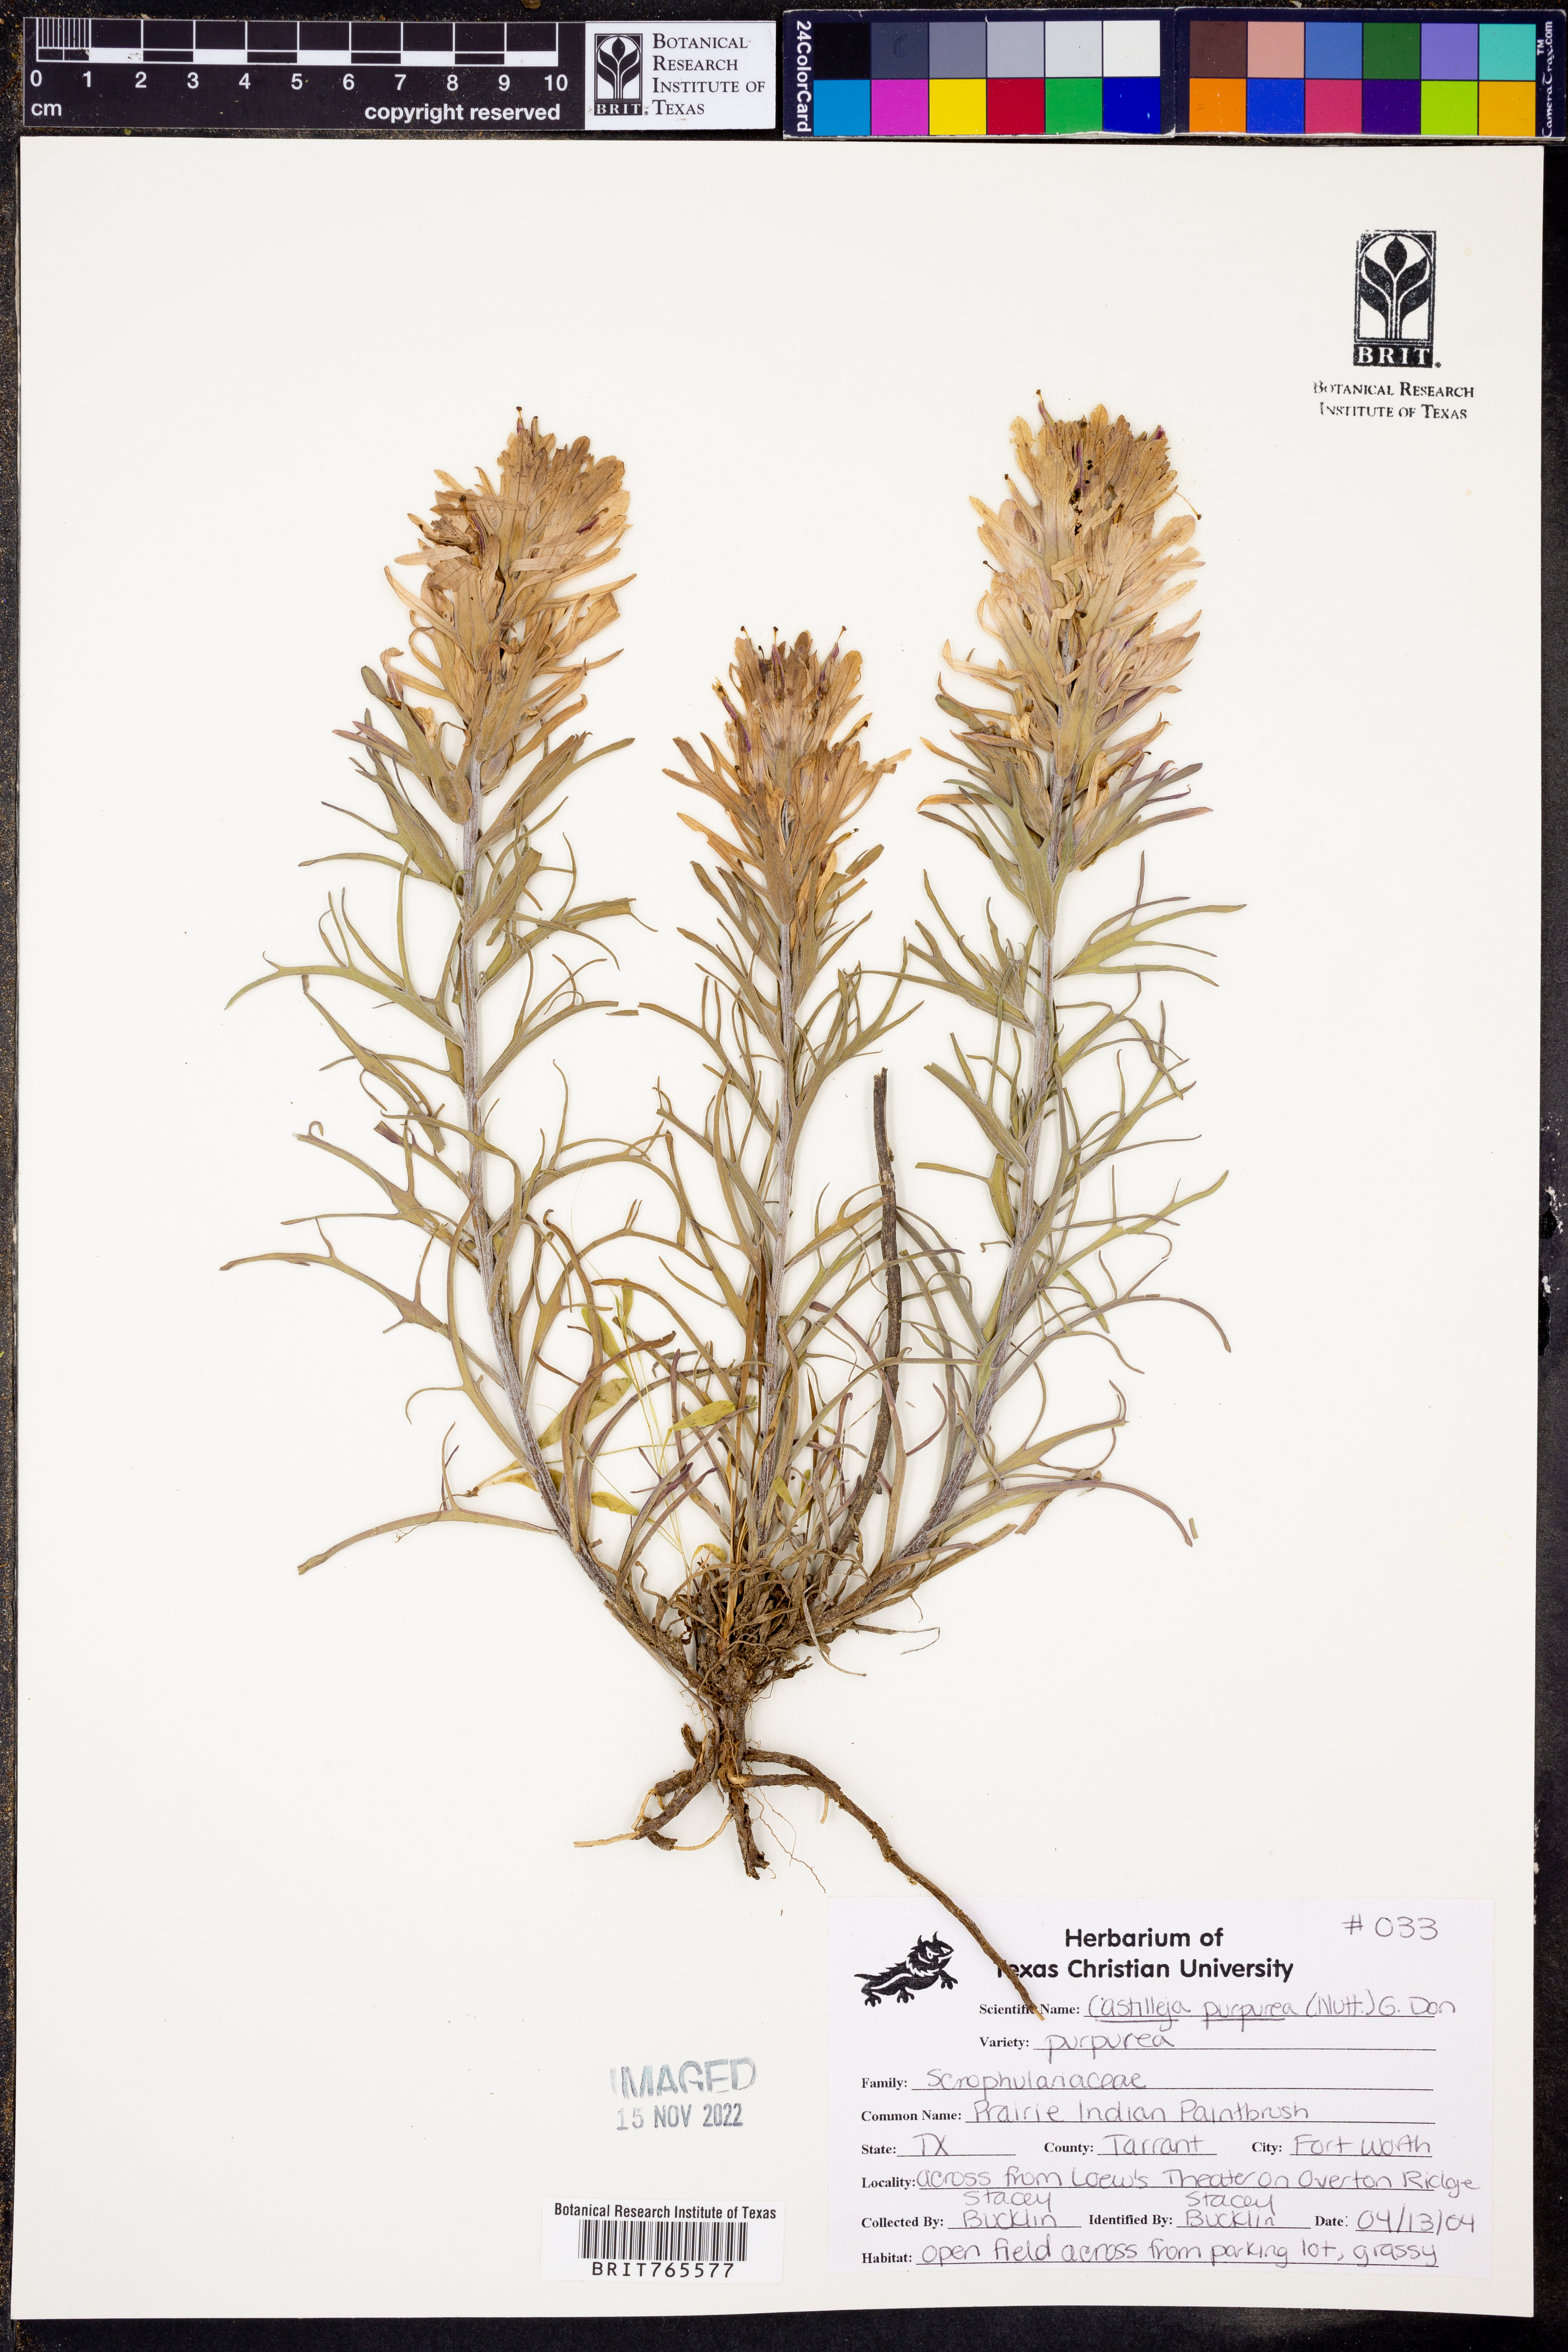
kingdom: Plantae
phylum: Tracheophyta
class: Magnoliopsida
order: Lamiales
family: Orobanchaceae
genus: Castilleja
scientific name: Castilleja purpurea
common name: Plains paintbrush
